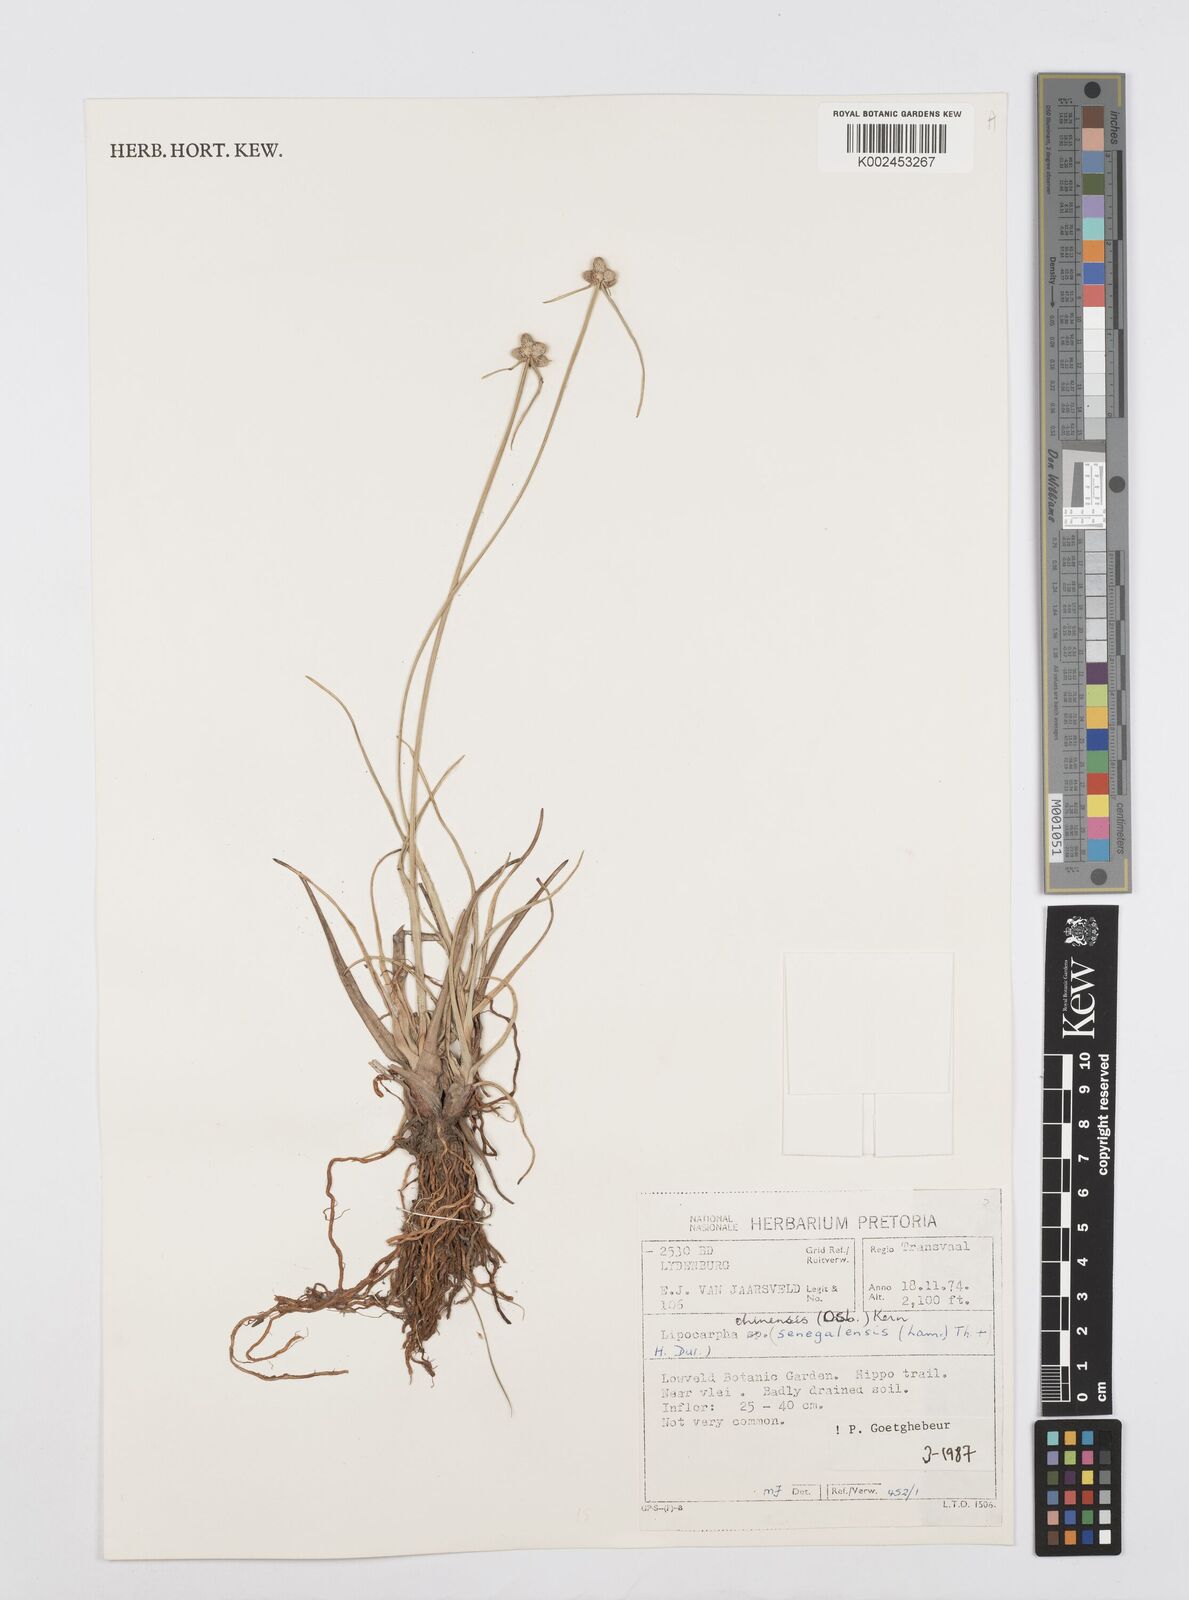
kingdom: Plantae
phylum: Tracheophyta
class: Liliopsida
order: Poales
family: Cyperaceae
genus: Cyperus
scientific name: Cyperus albescens
